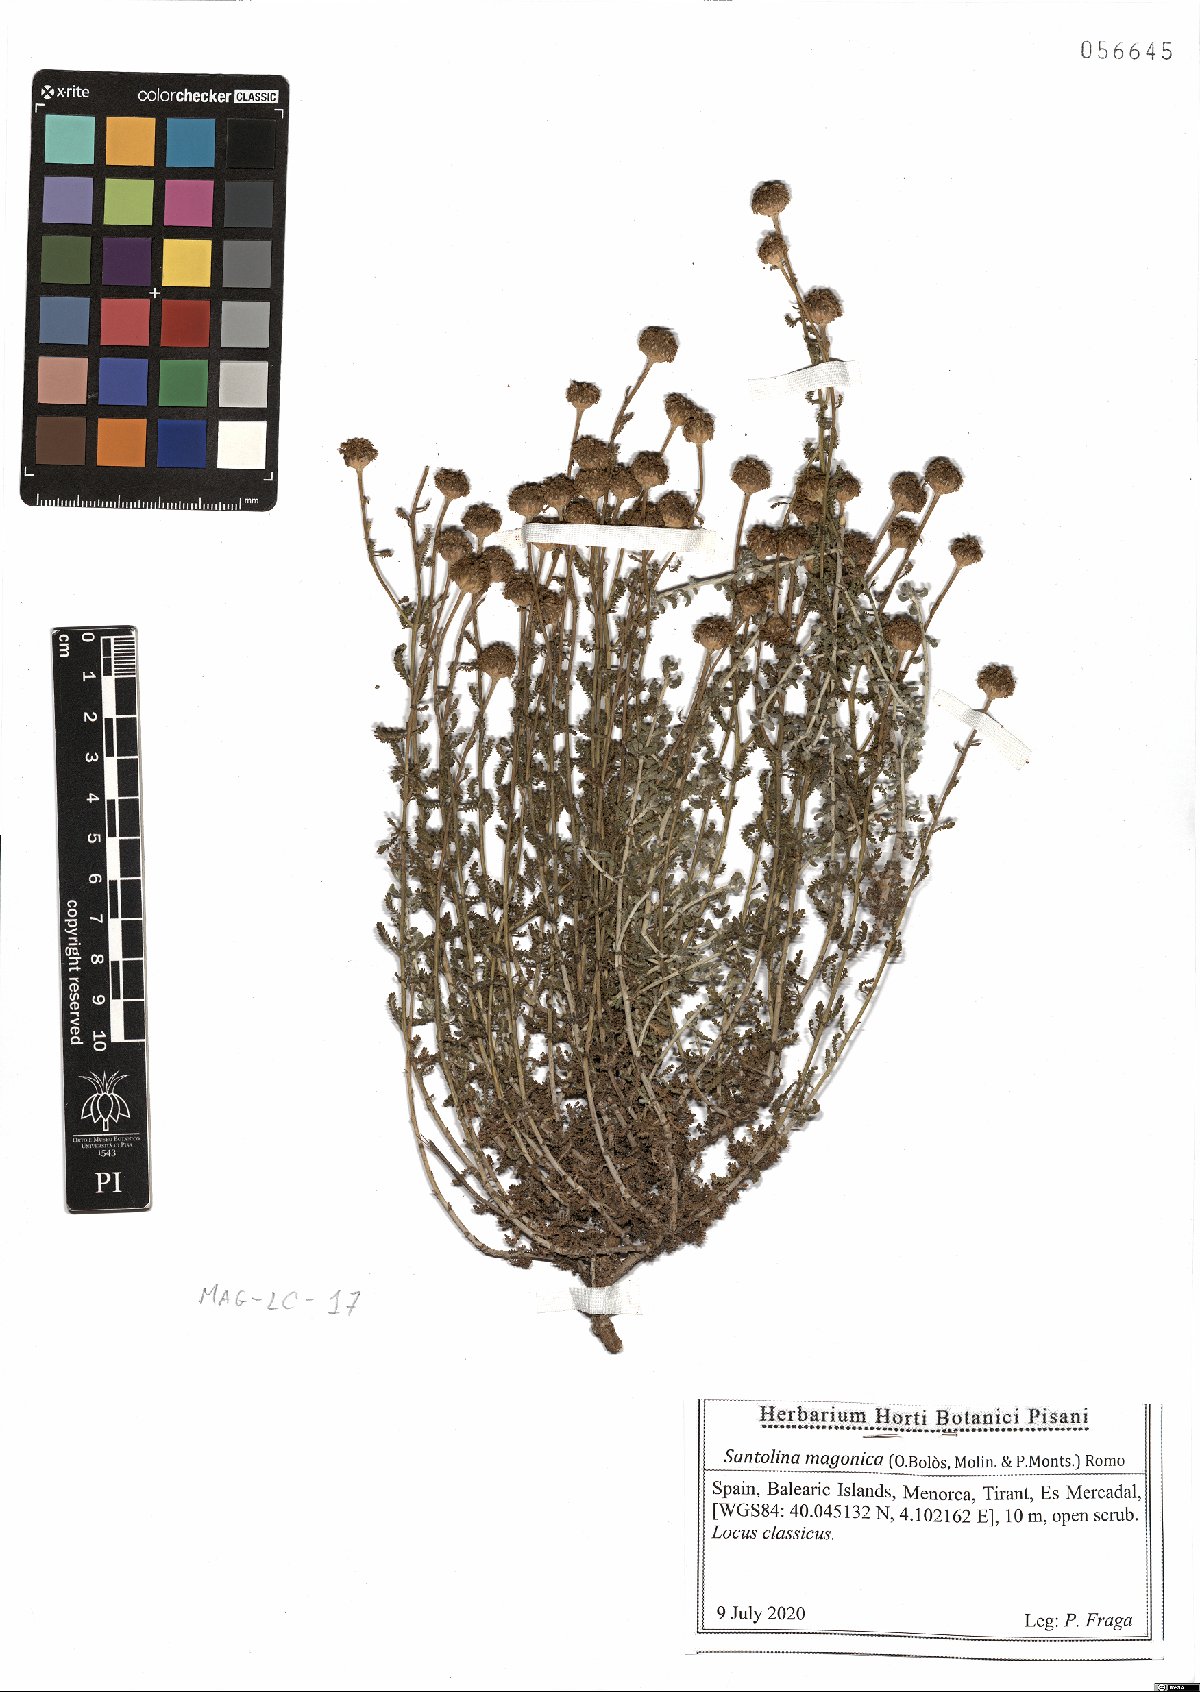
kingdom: Plantae
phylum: Tracheophyta
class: Magnoliopsida
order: Asterales
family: Asteraceae
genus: Santolina
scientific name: Santolina magonica
